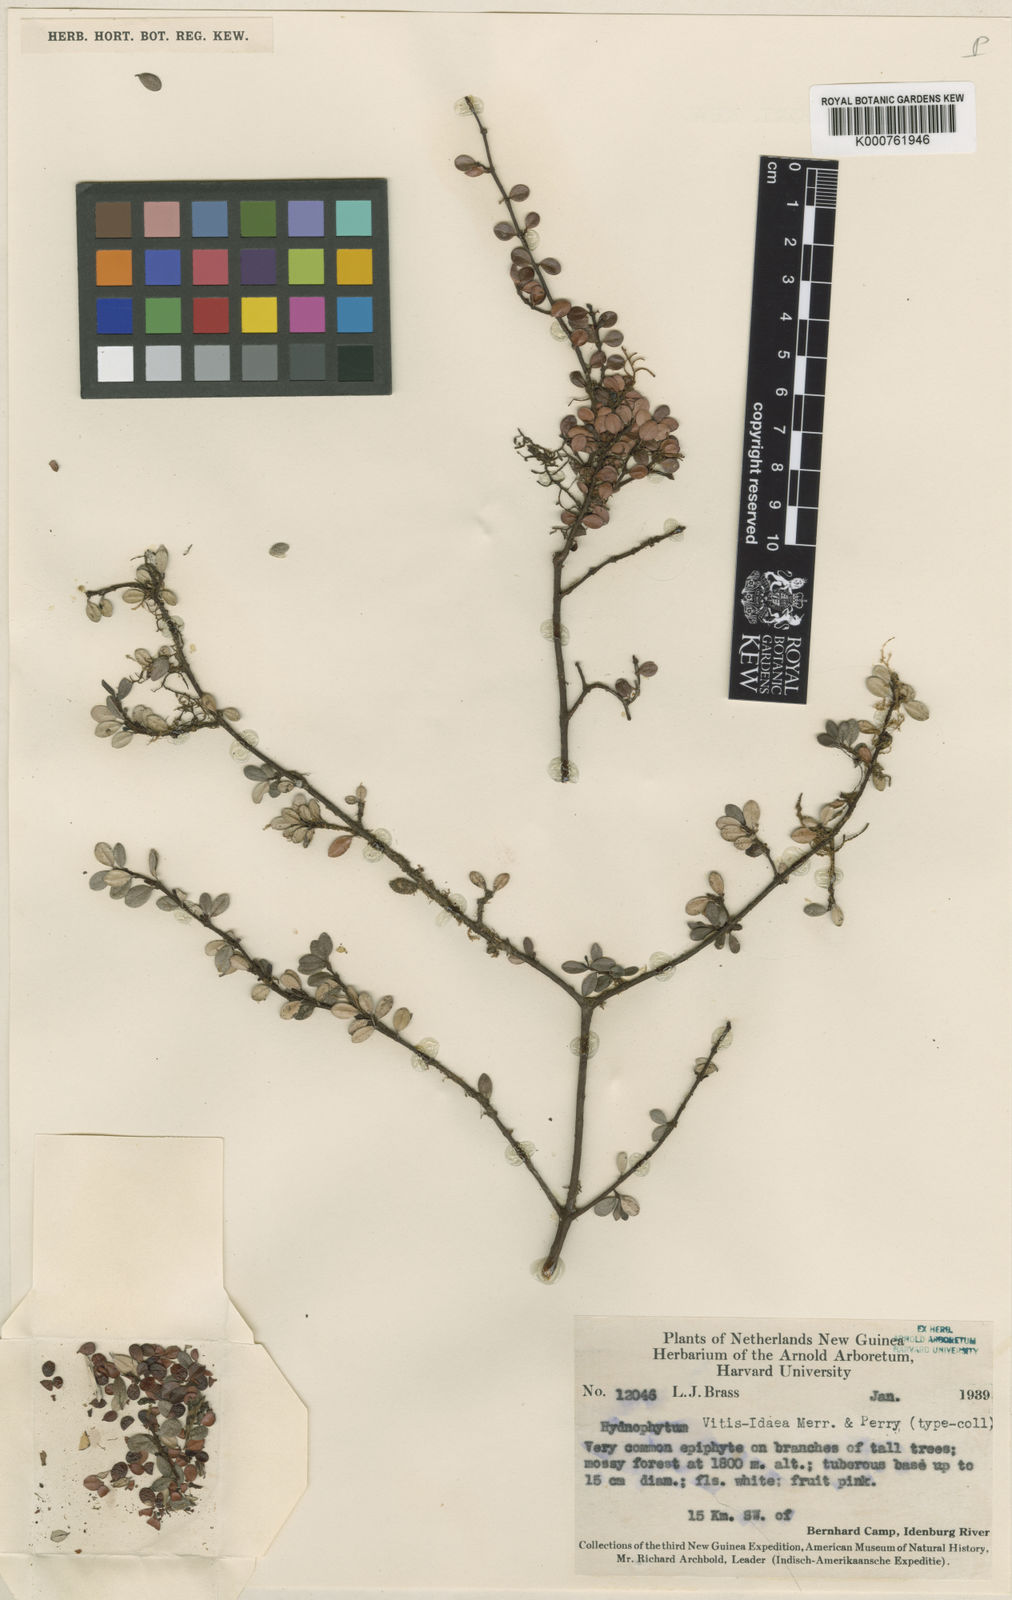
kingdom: Plantae
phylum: Tracheophyta
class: Magnoliopsida
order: Gentianales
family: Rubiaceae
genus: Hydnophytum
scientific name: Hydnophytum vitis-idaea
